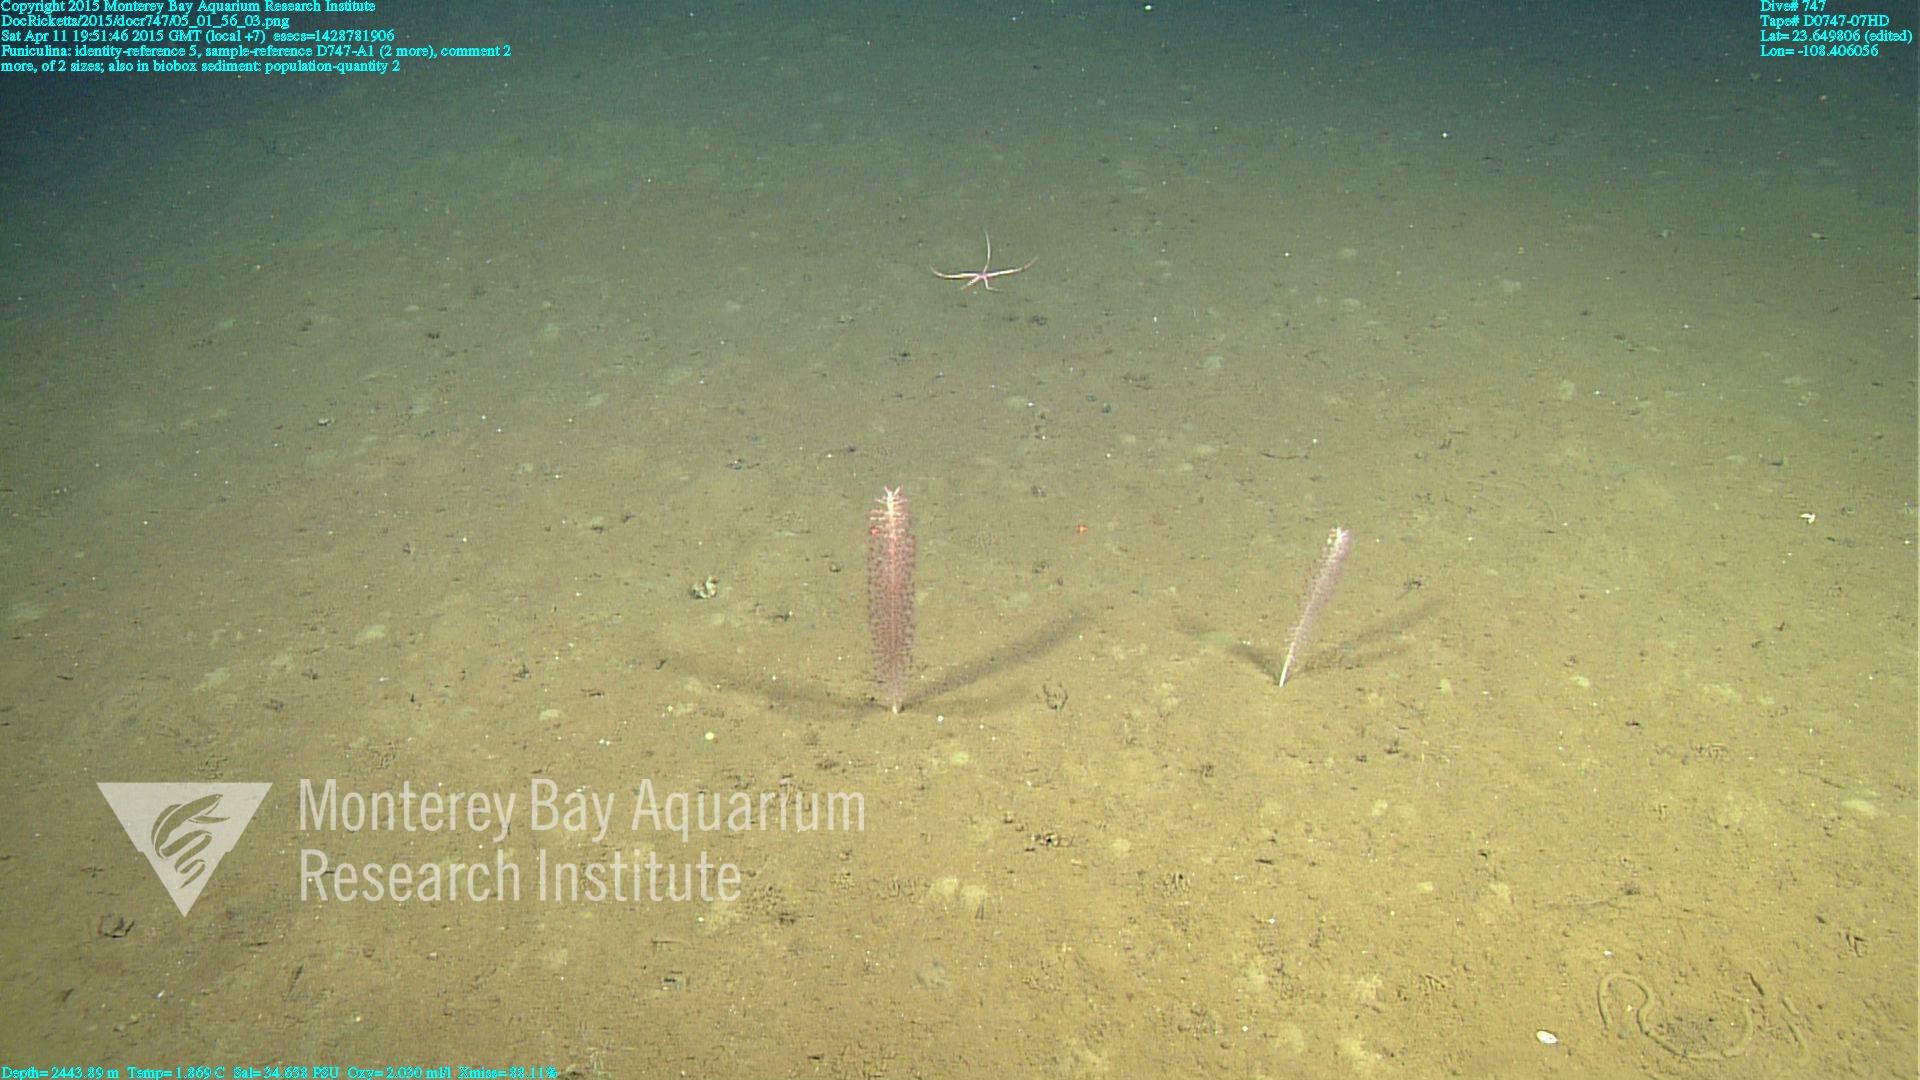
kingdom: Animalia
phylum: Cnidaria
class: Anthozoa
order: Scleralcyonacea
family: Funiculinidae
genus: Funiculina
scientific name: Funiculina
